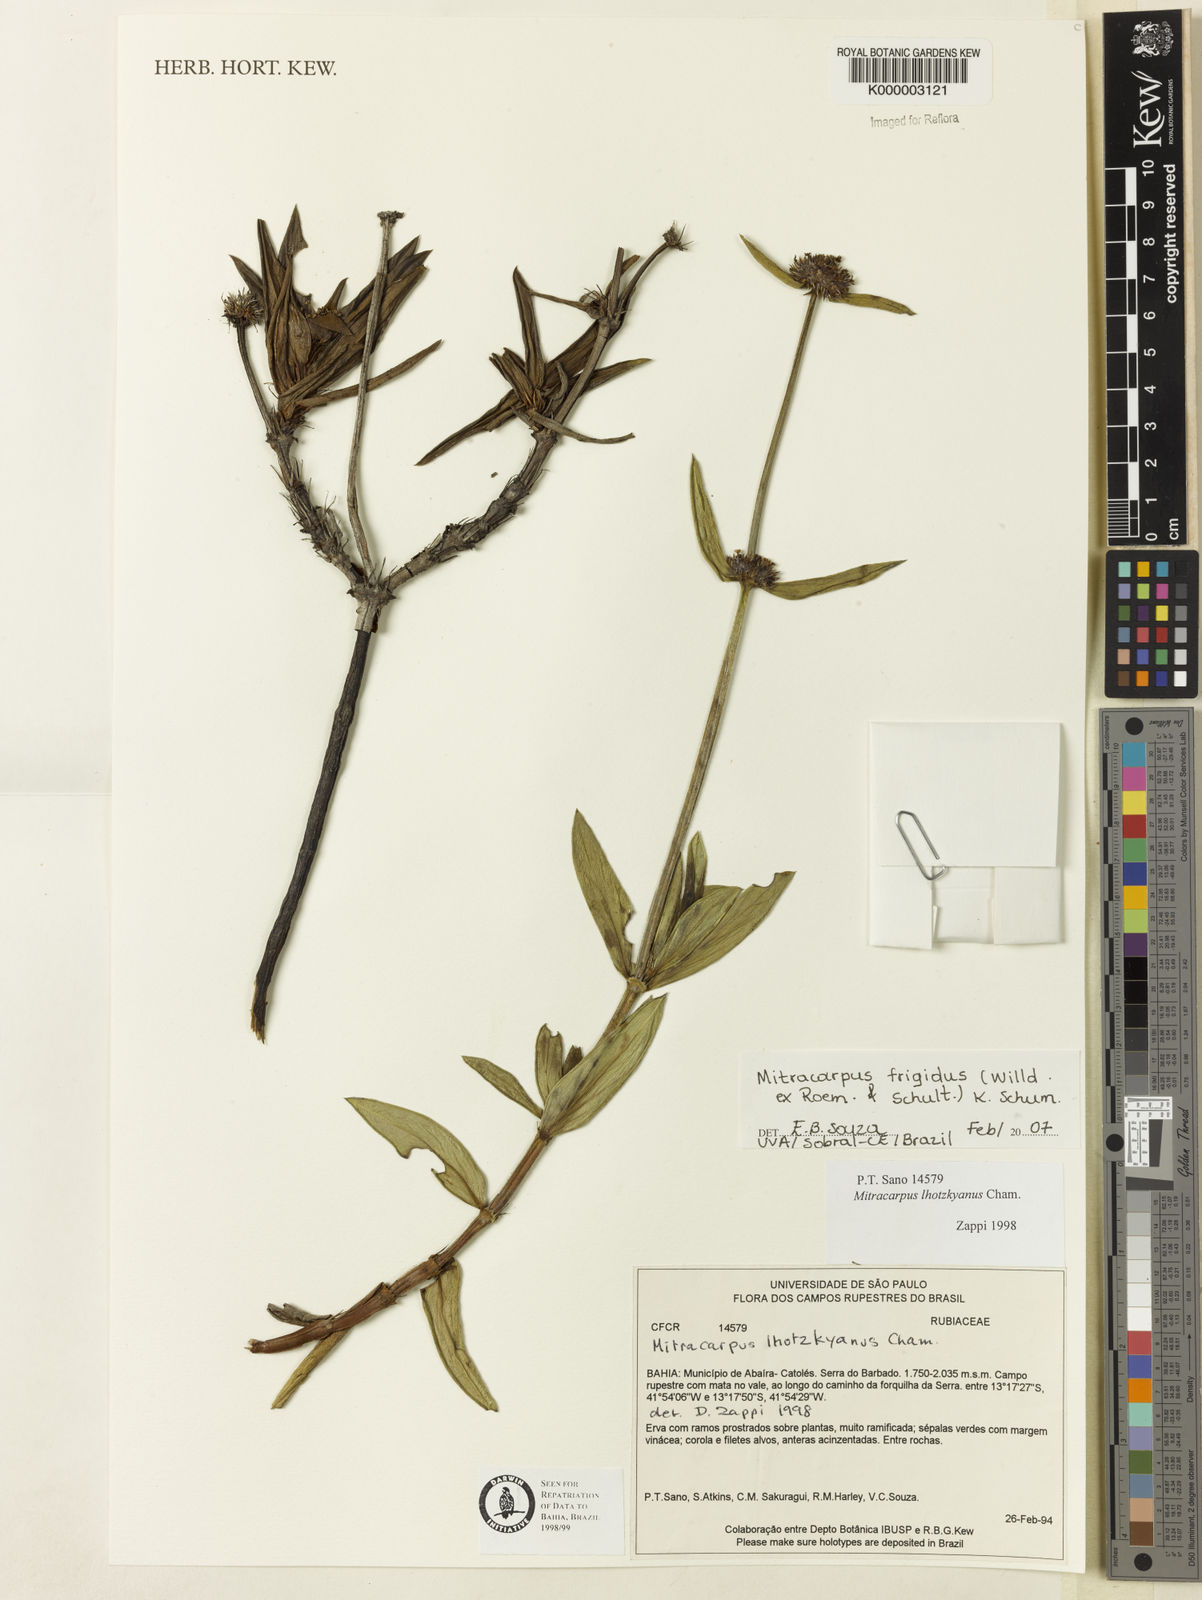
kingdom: Plantae
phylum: Tracheophyta
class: Magnoliopsida
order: Gentianales
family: Rubiaceae
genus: Mitracarpus
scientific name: Mitracarpus frigidus
